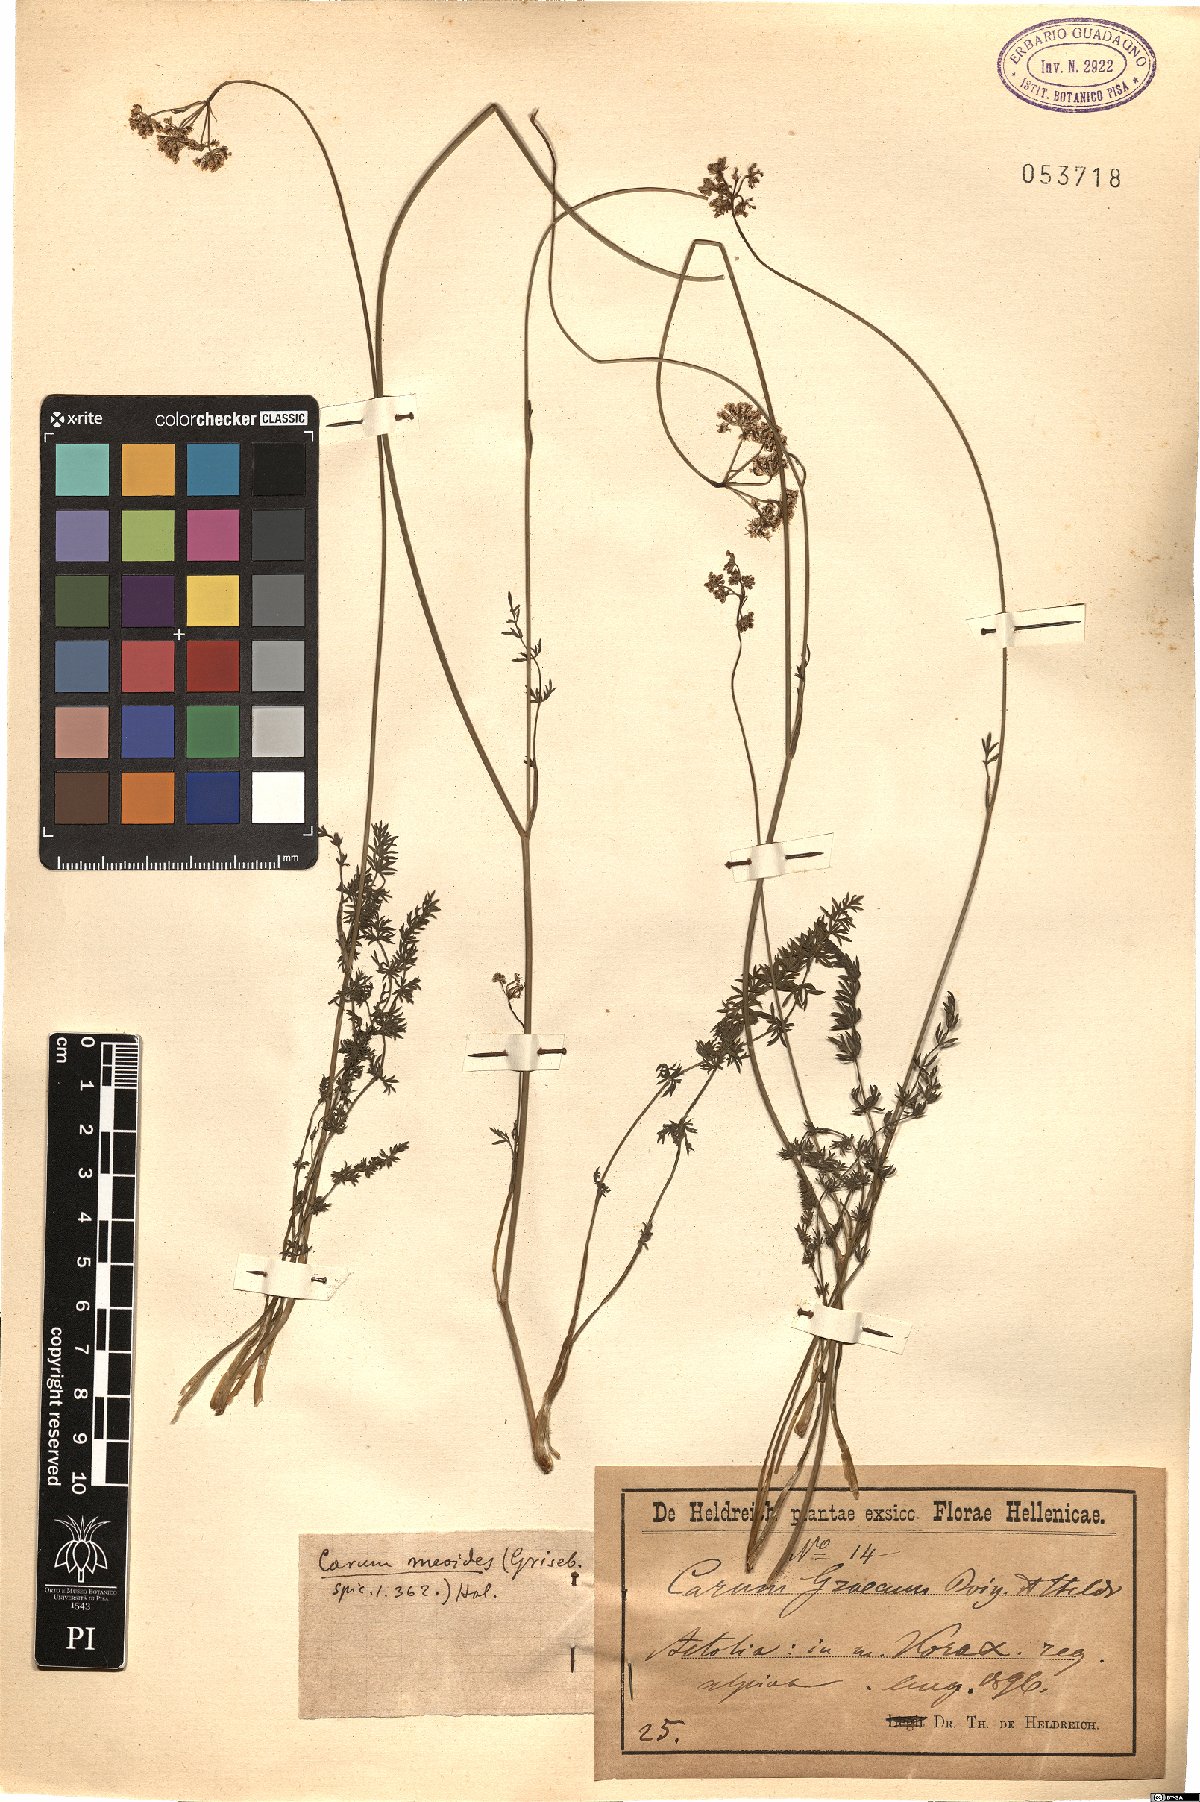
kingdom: Plantae
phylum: Tracheophyta
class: Magnoliopsida
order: Apiales
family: Apiaceae
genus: Carum
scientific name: Carum meoides
